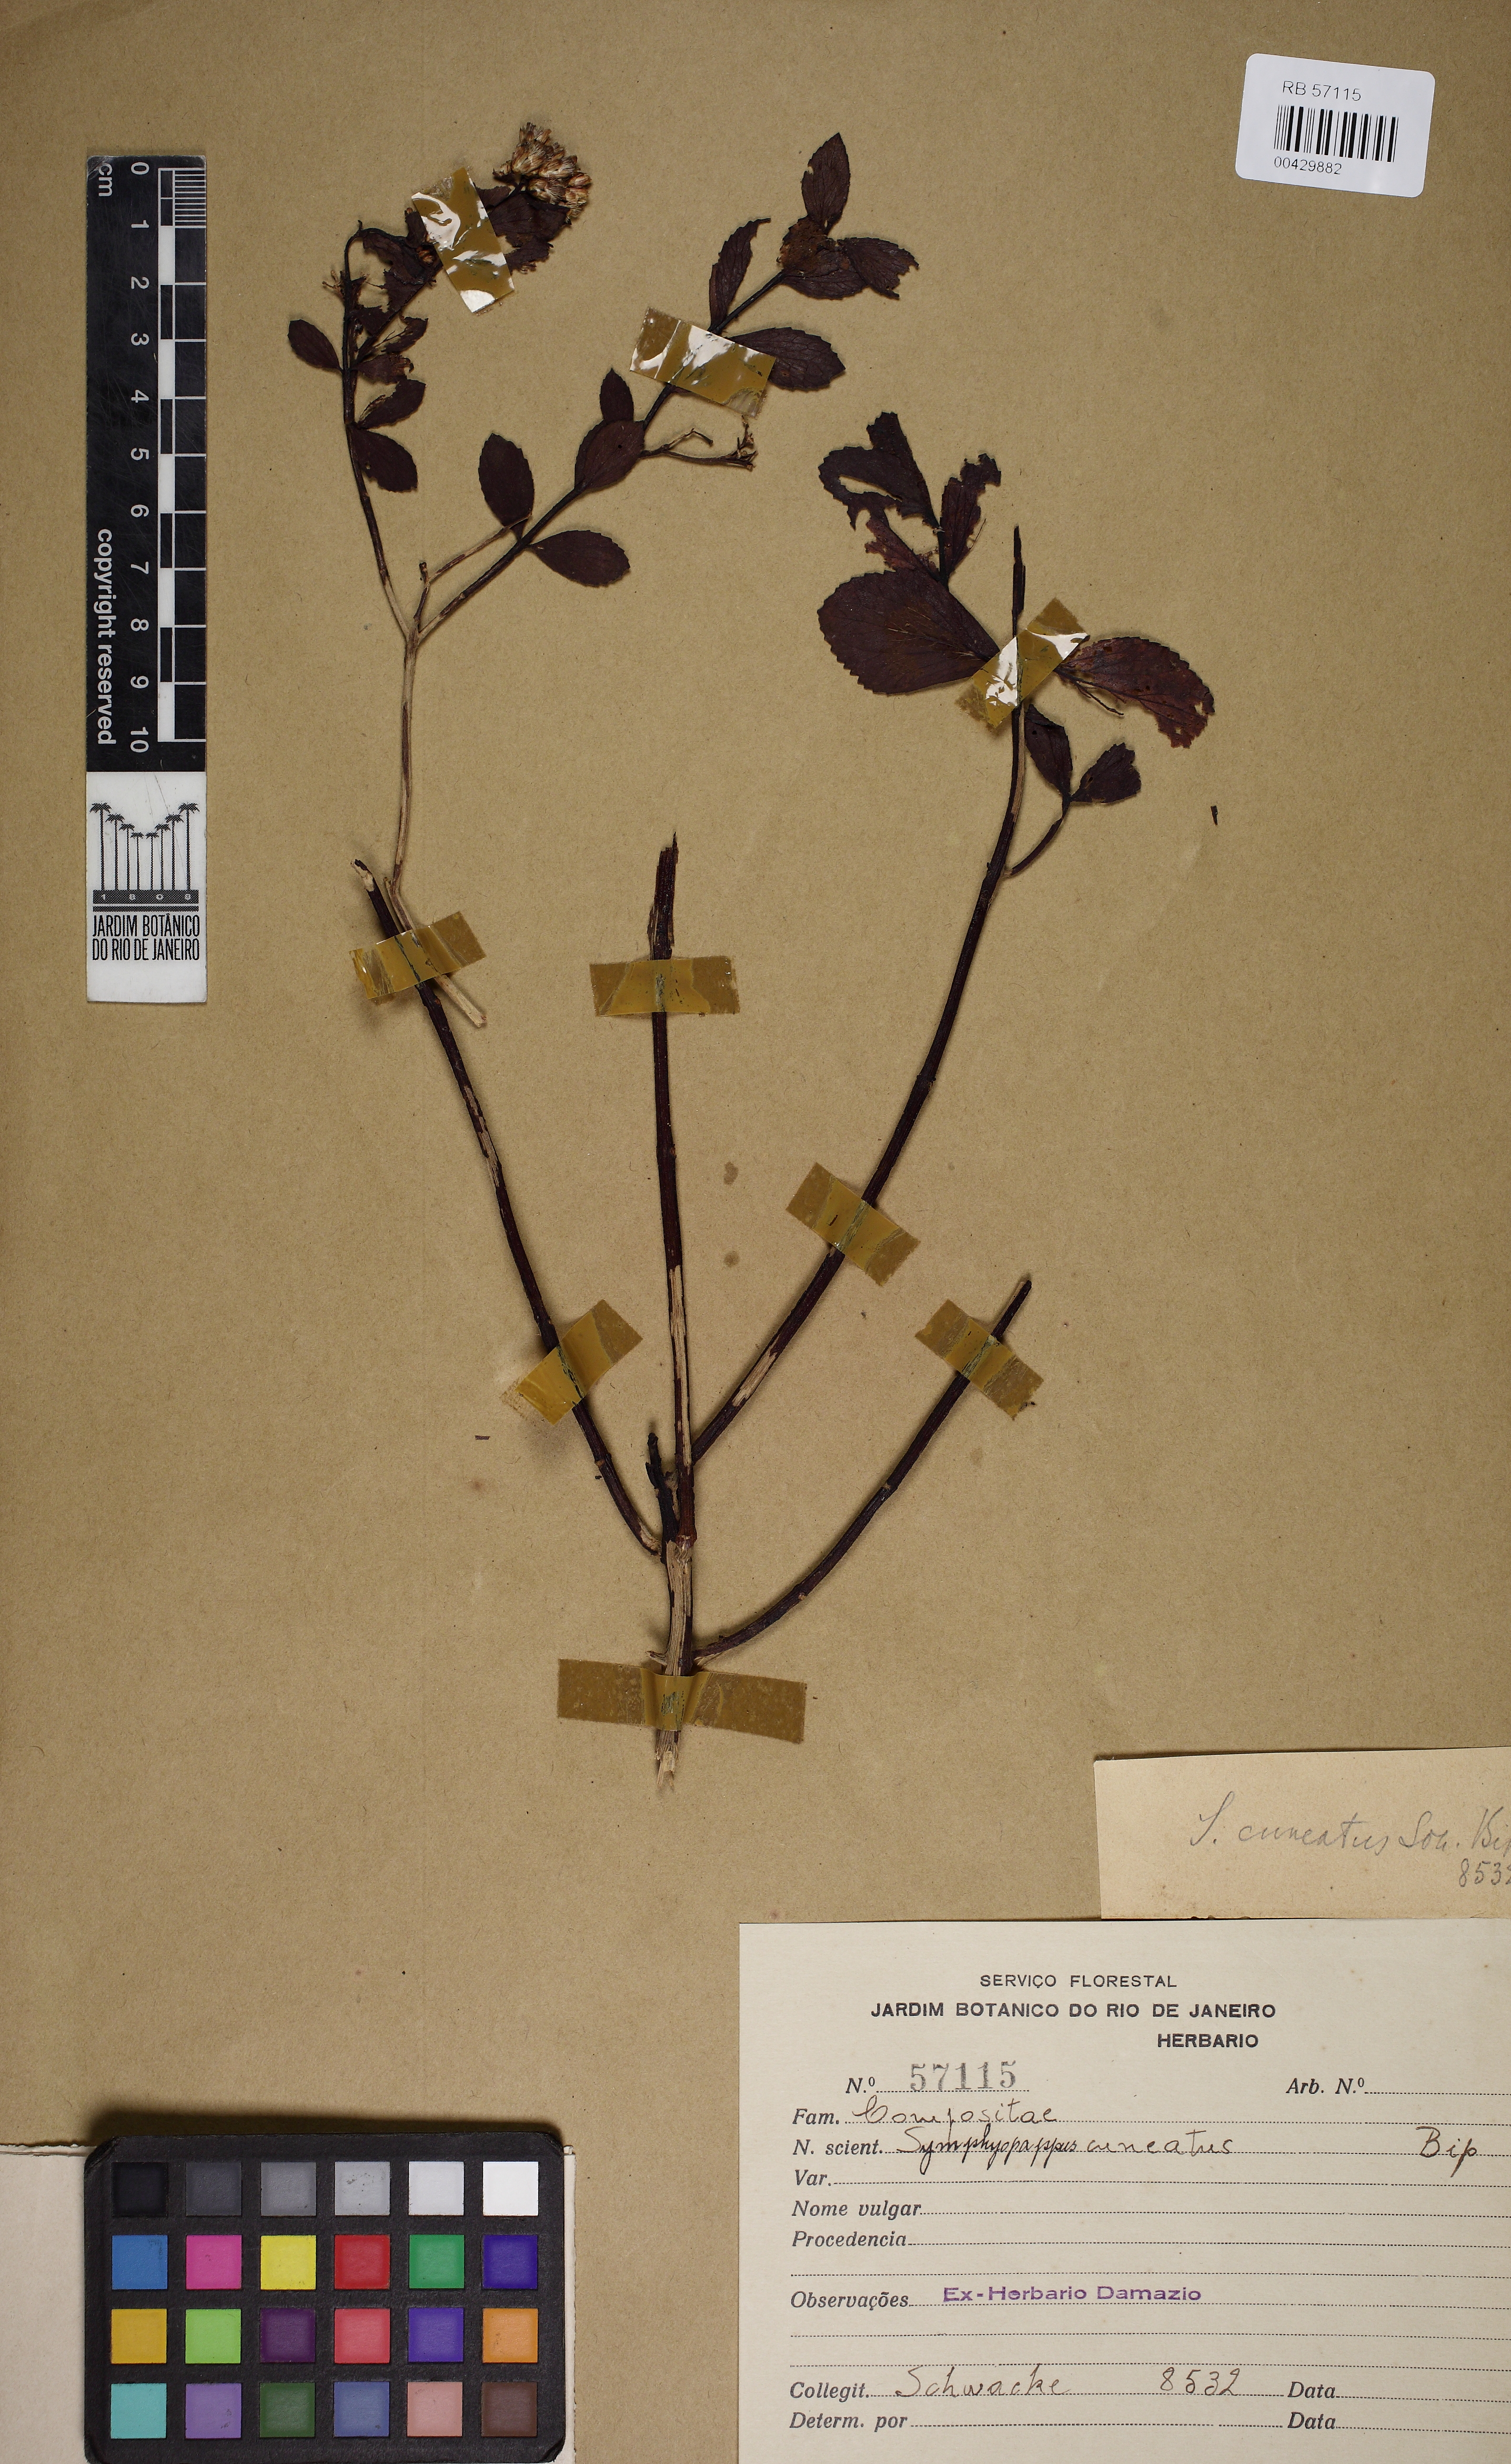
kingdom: Plantae
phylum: Tracheophyta
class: Magnoliopsida
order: Asterales
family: Asteraceae
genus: Symphyopappus
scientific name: Symphyopappus cuneatus
